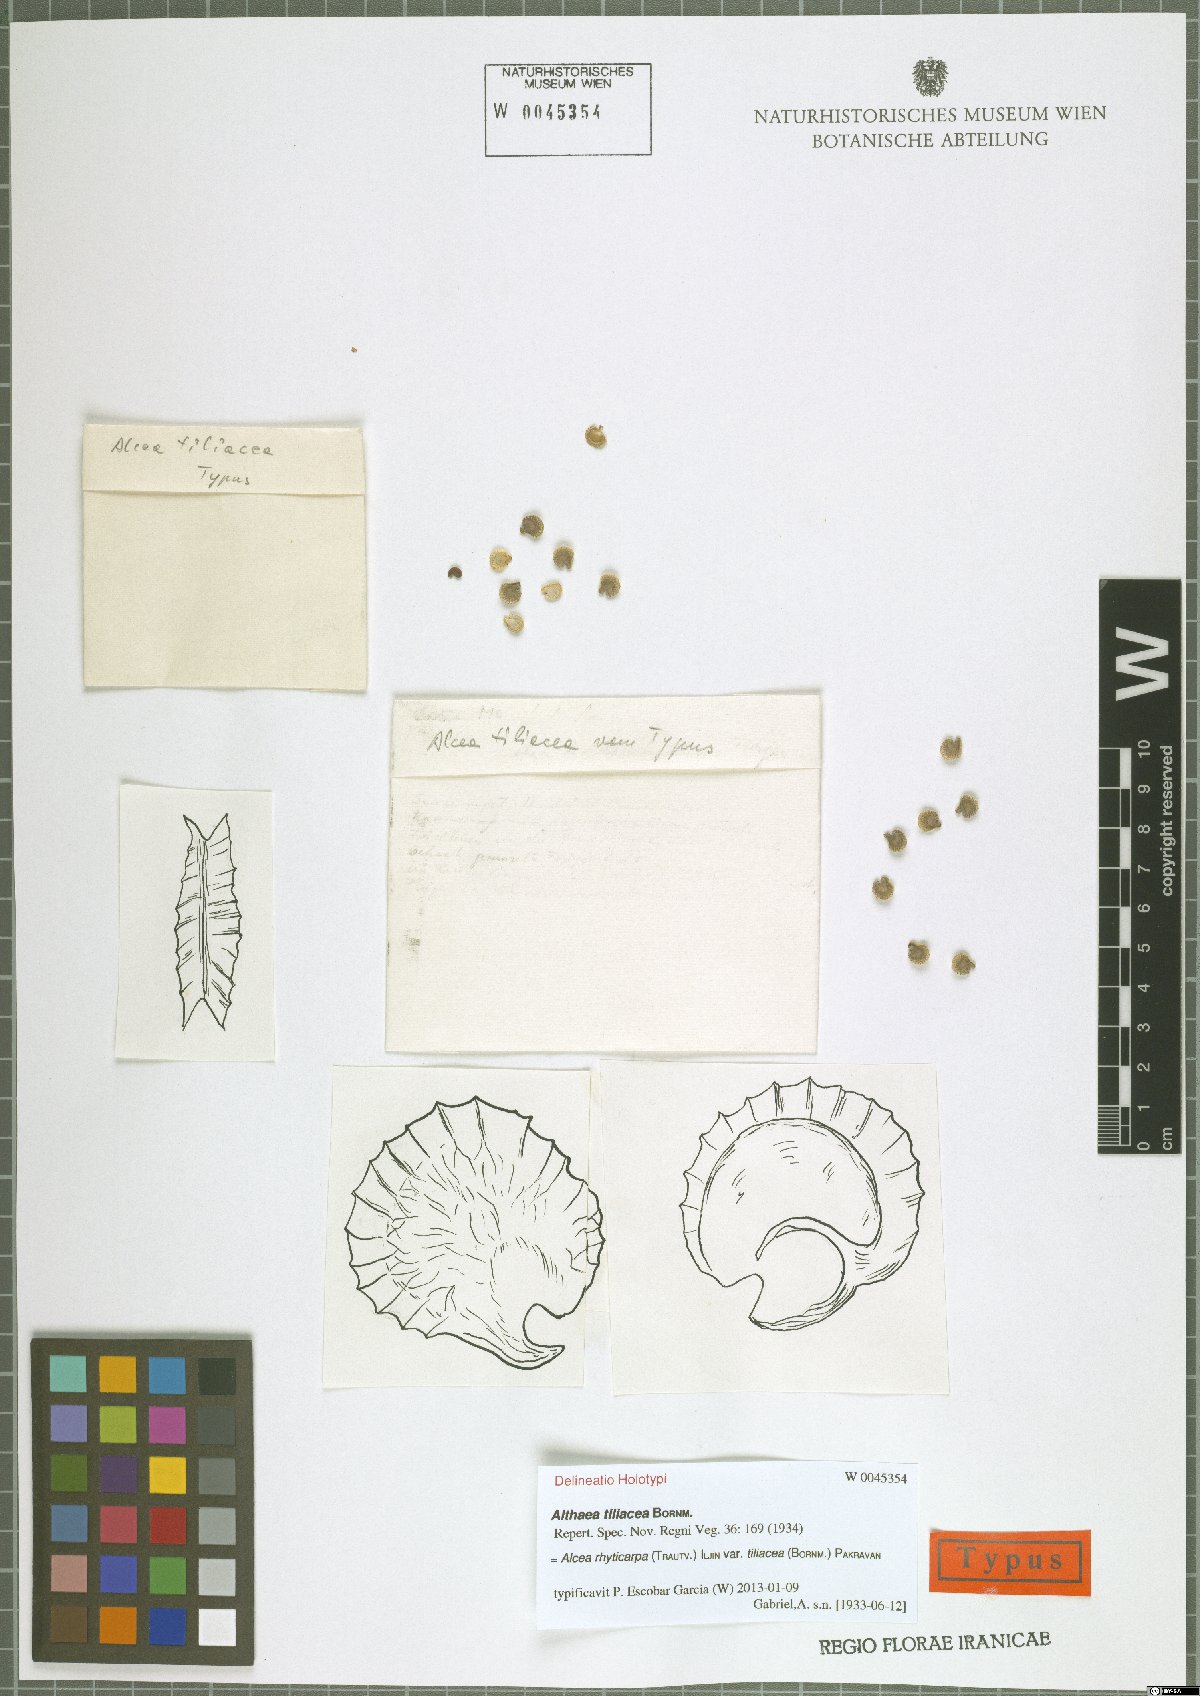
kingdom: Plantae
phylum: Tracheophyta
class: Magnoliopsida
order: Malvales
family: Malvaceae
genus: Alcea
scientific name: Alcea rhyticarpa
